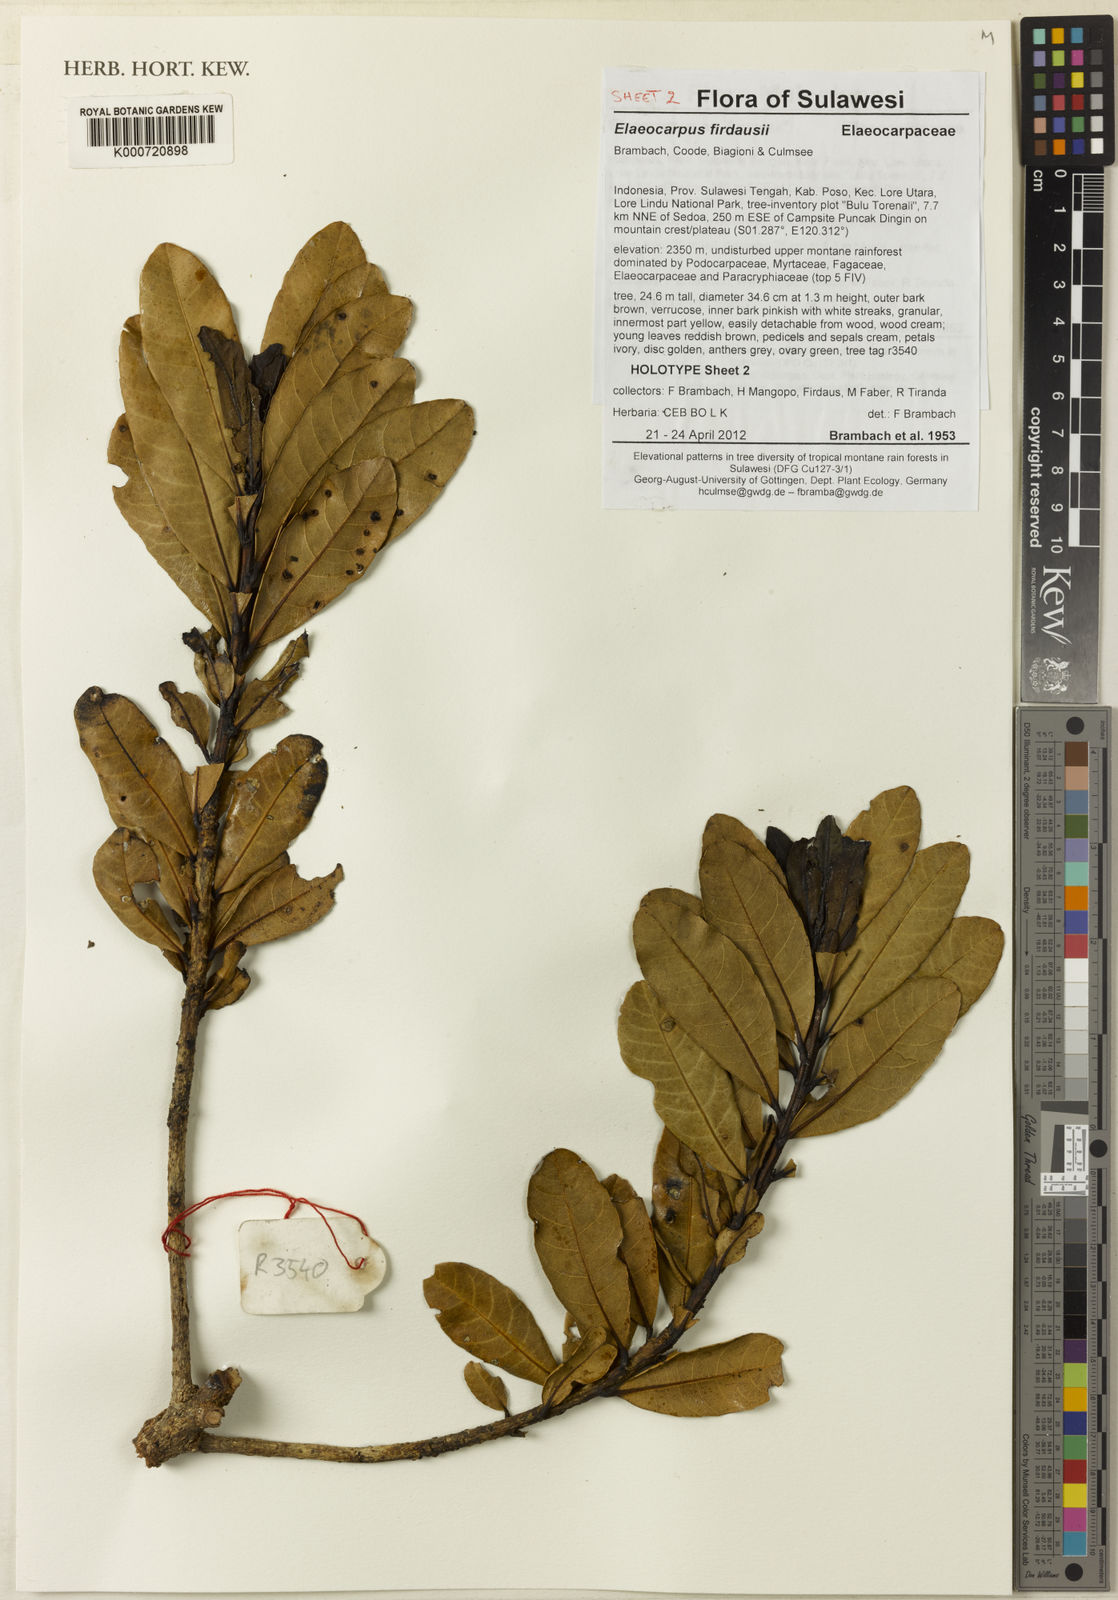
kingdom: Plantae
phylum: Tracheophyta
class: Magnoliopsida
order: Oxalidales
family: Elaeocarpaceae
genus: Elaeocarpus
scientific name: Elaeocarpus firdausii
